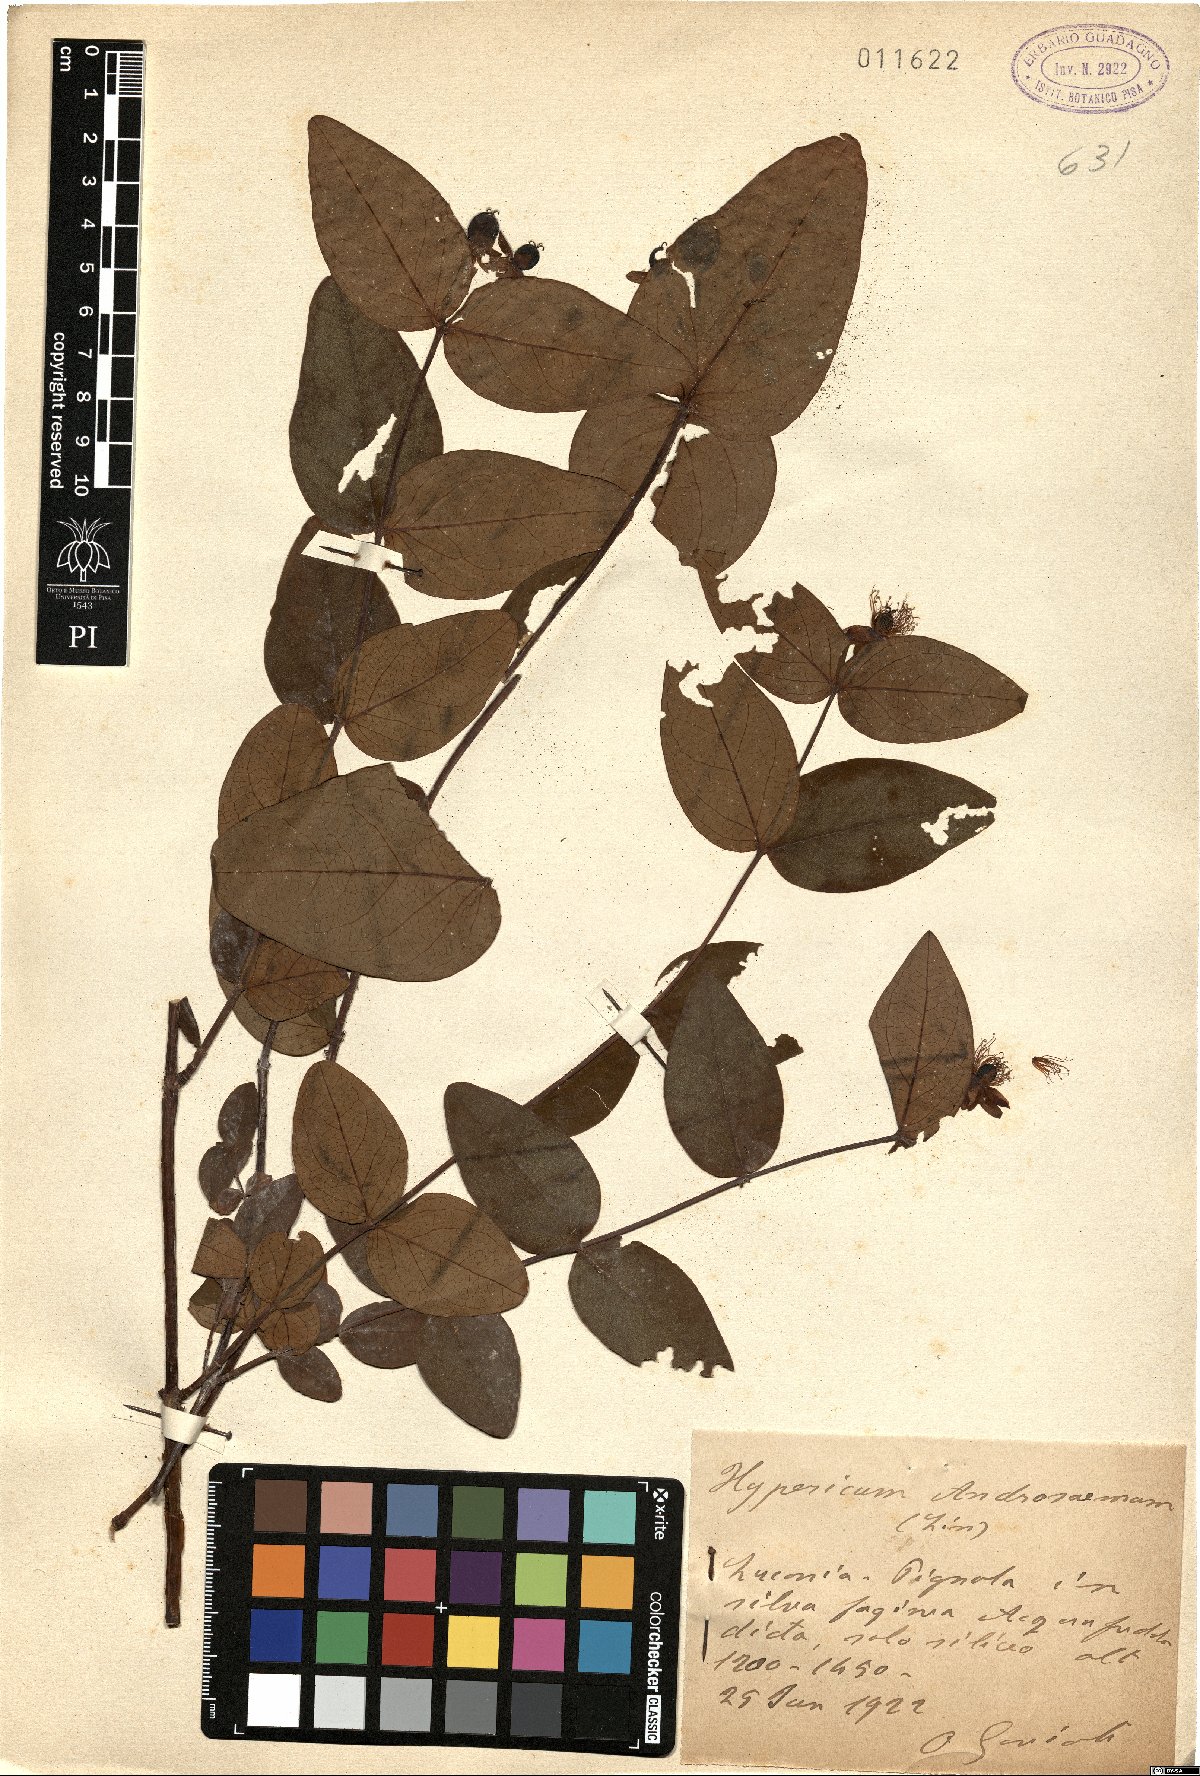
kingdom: Plantae
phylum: Tracheophyta
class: Magnoliopsida
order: Malpighiales
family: Hypericaceae
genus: Hypericum
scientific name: Hypericum androsaemum
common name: Sweet-amber
